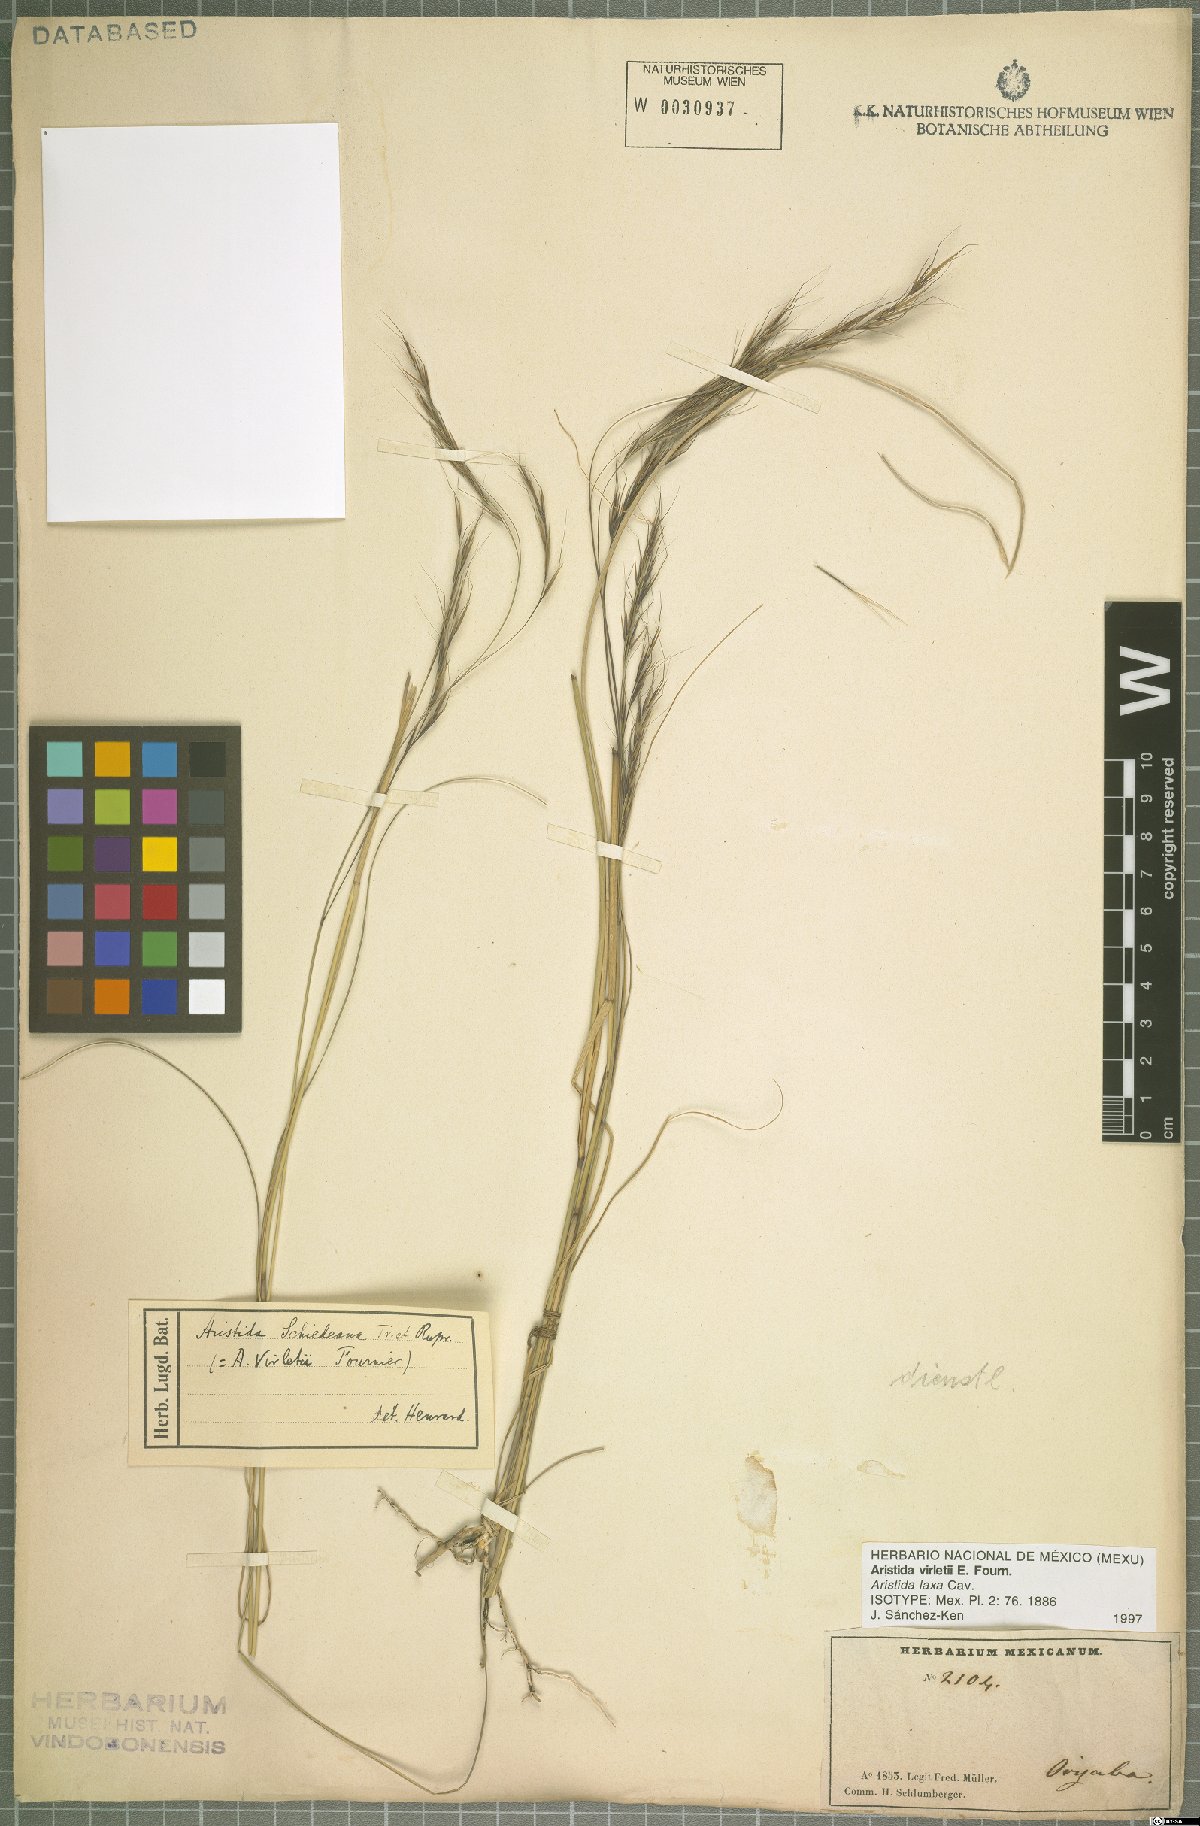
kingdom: Plantae
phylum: Tracheophyta
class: Liliopsida
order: Poales
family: Poaceae
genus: Aristida
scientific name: Aristida laxa
